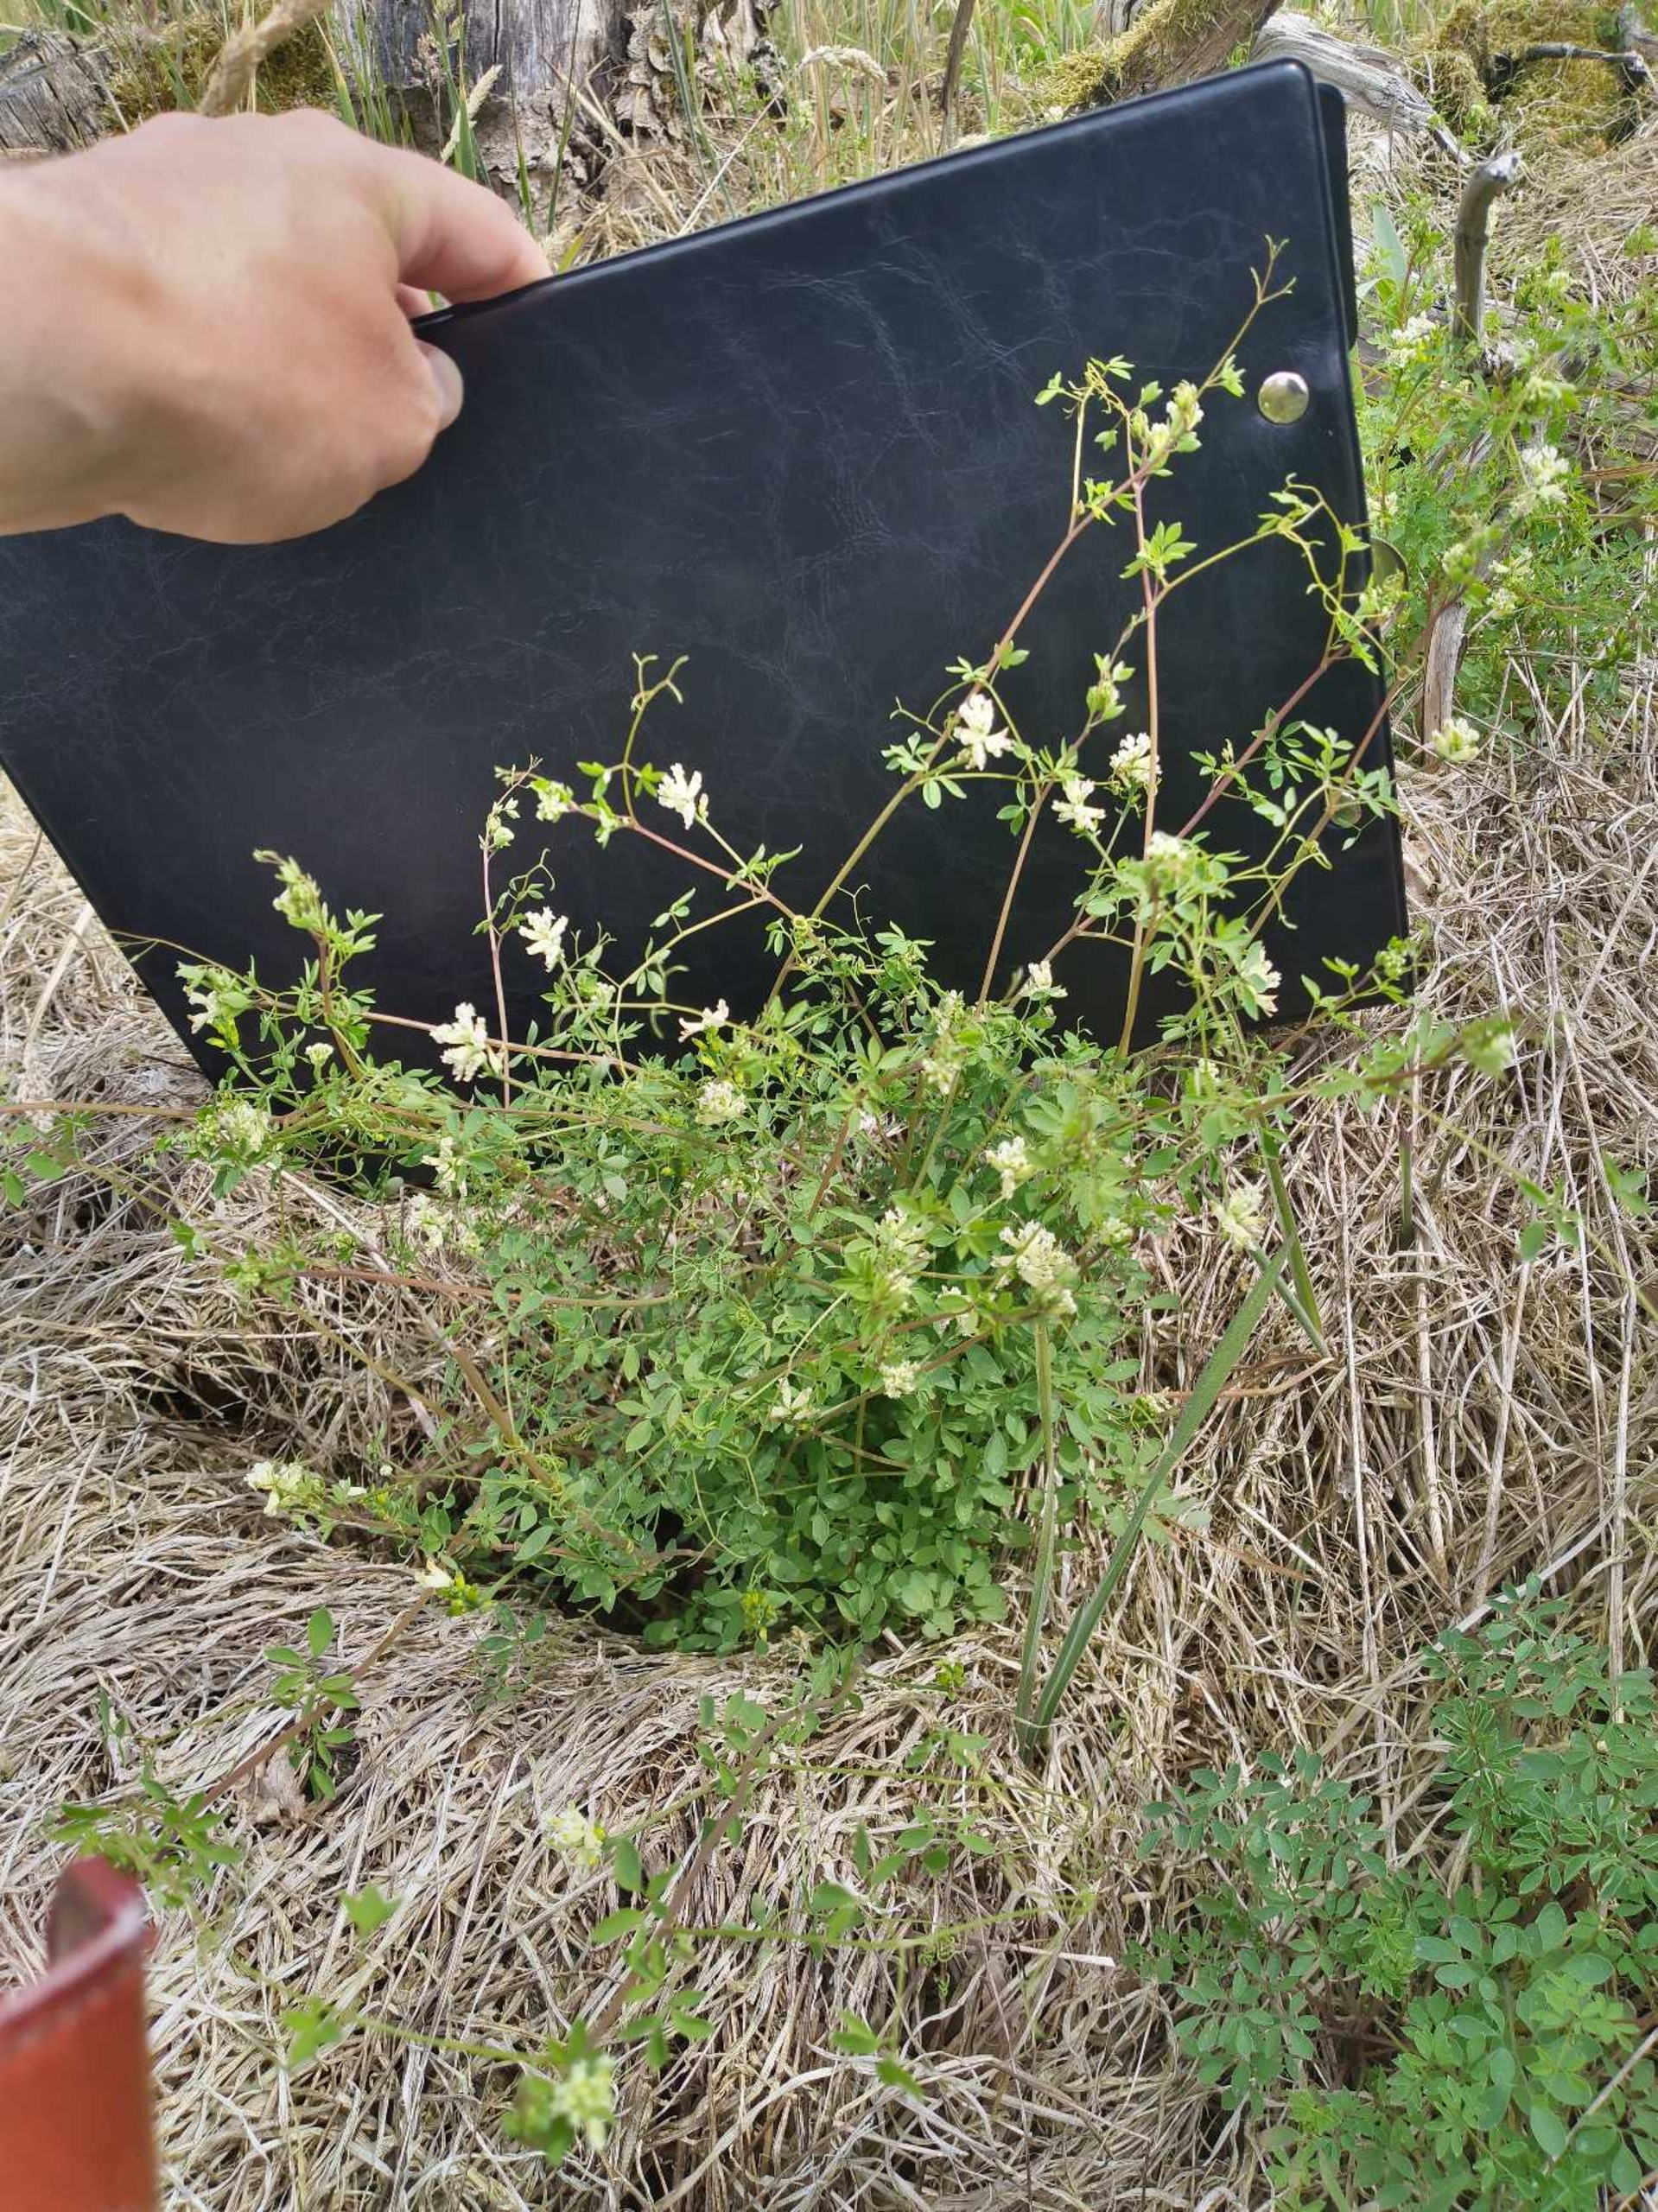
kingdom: Plantae
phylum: Tracheophyta
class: Magnoliopsida
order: Ranunculales
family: Papaveraceae
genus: Ceratocapnos
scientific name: Ceratocapnos claviculata
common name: Klatrende lærkespore
